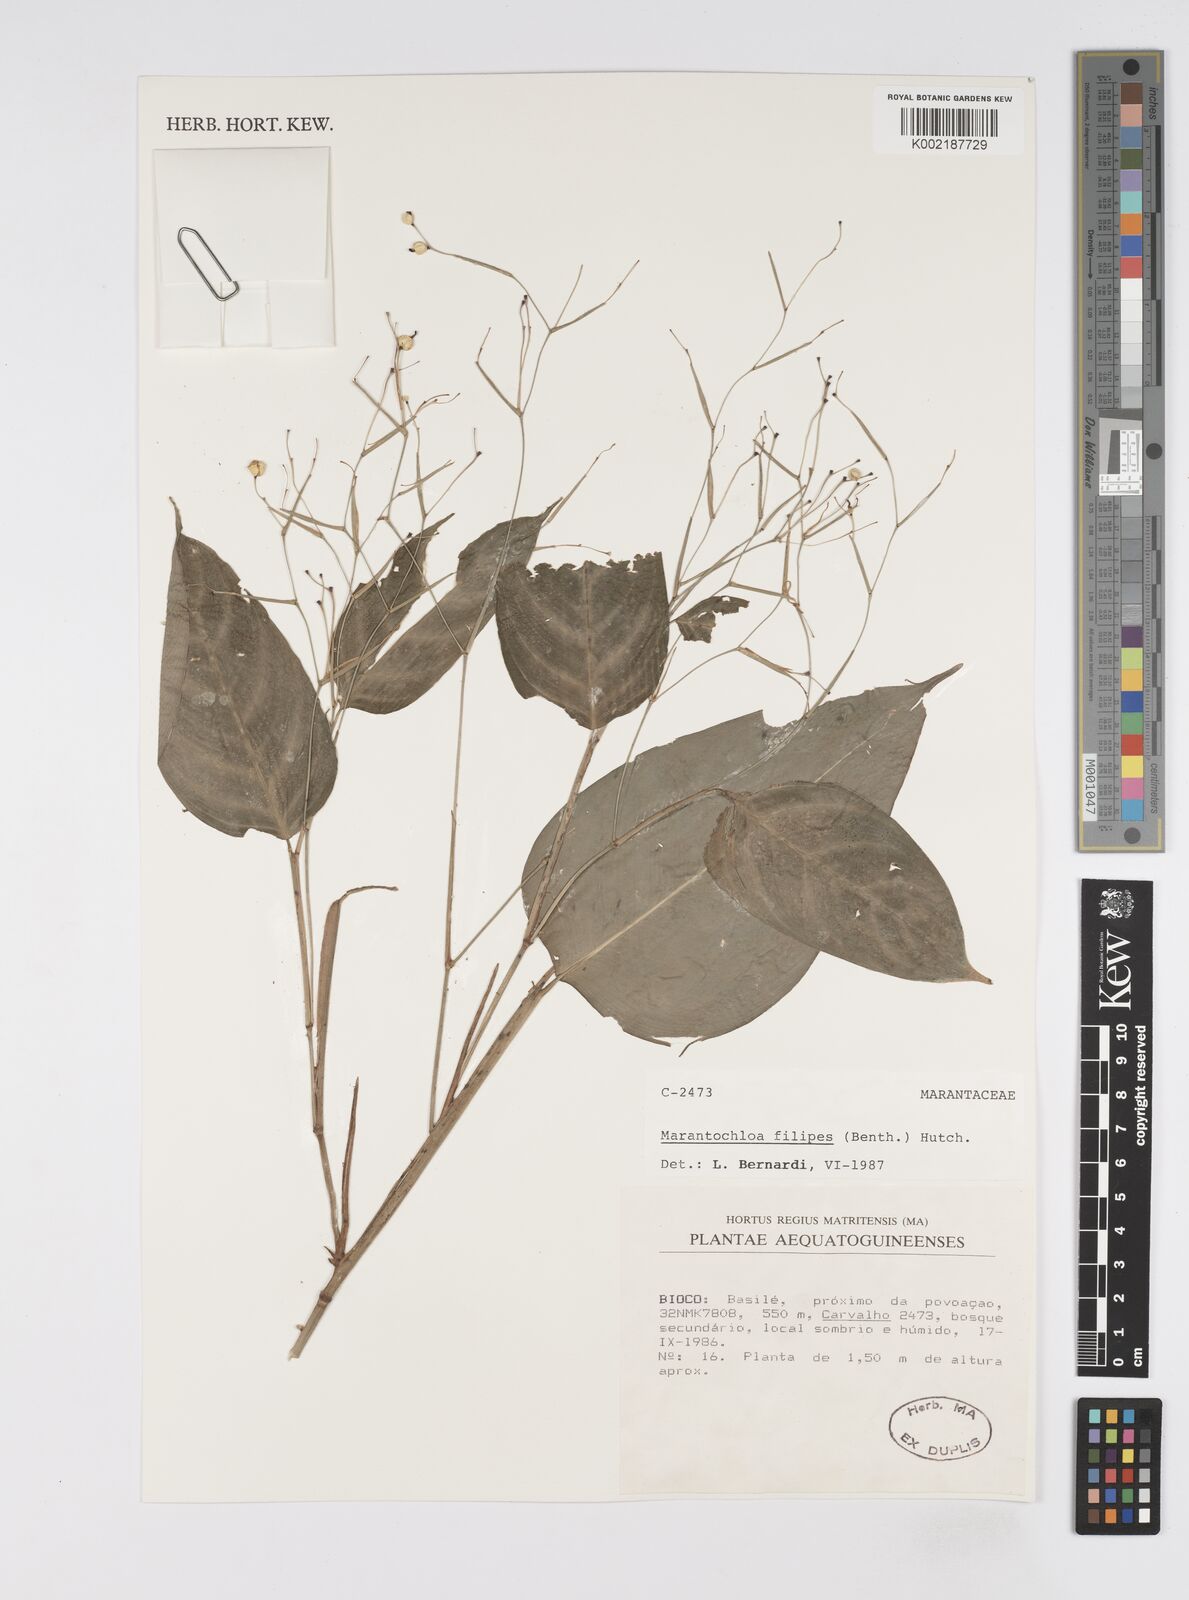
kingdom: Plantae
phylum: Tracheophyta
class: Liliopsida
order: Zingiberales
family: Marantaceae
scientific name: Marantaceae
